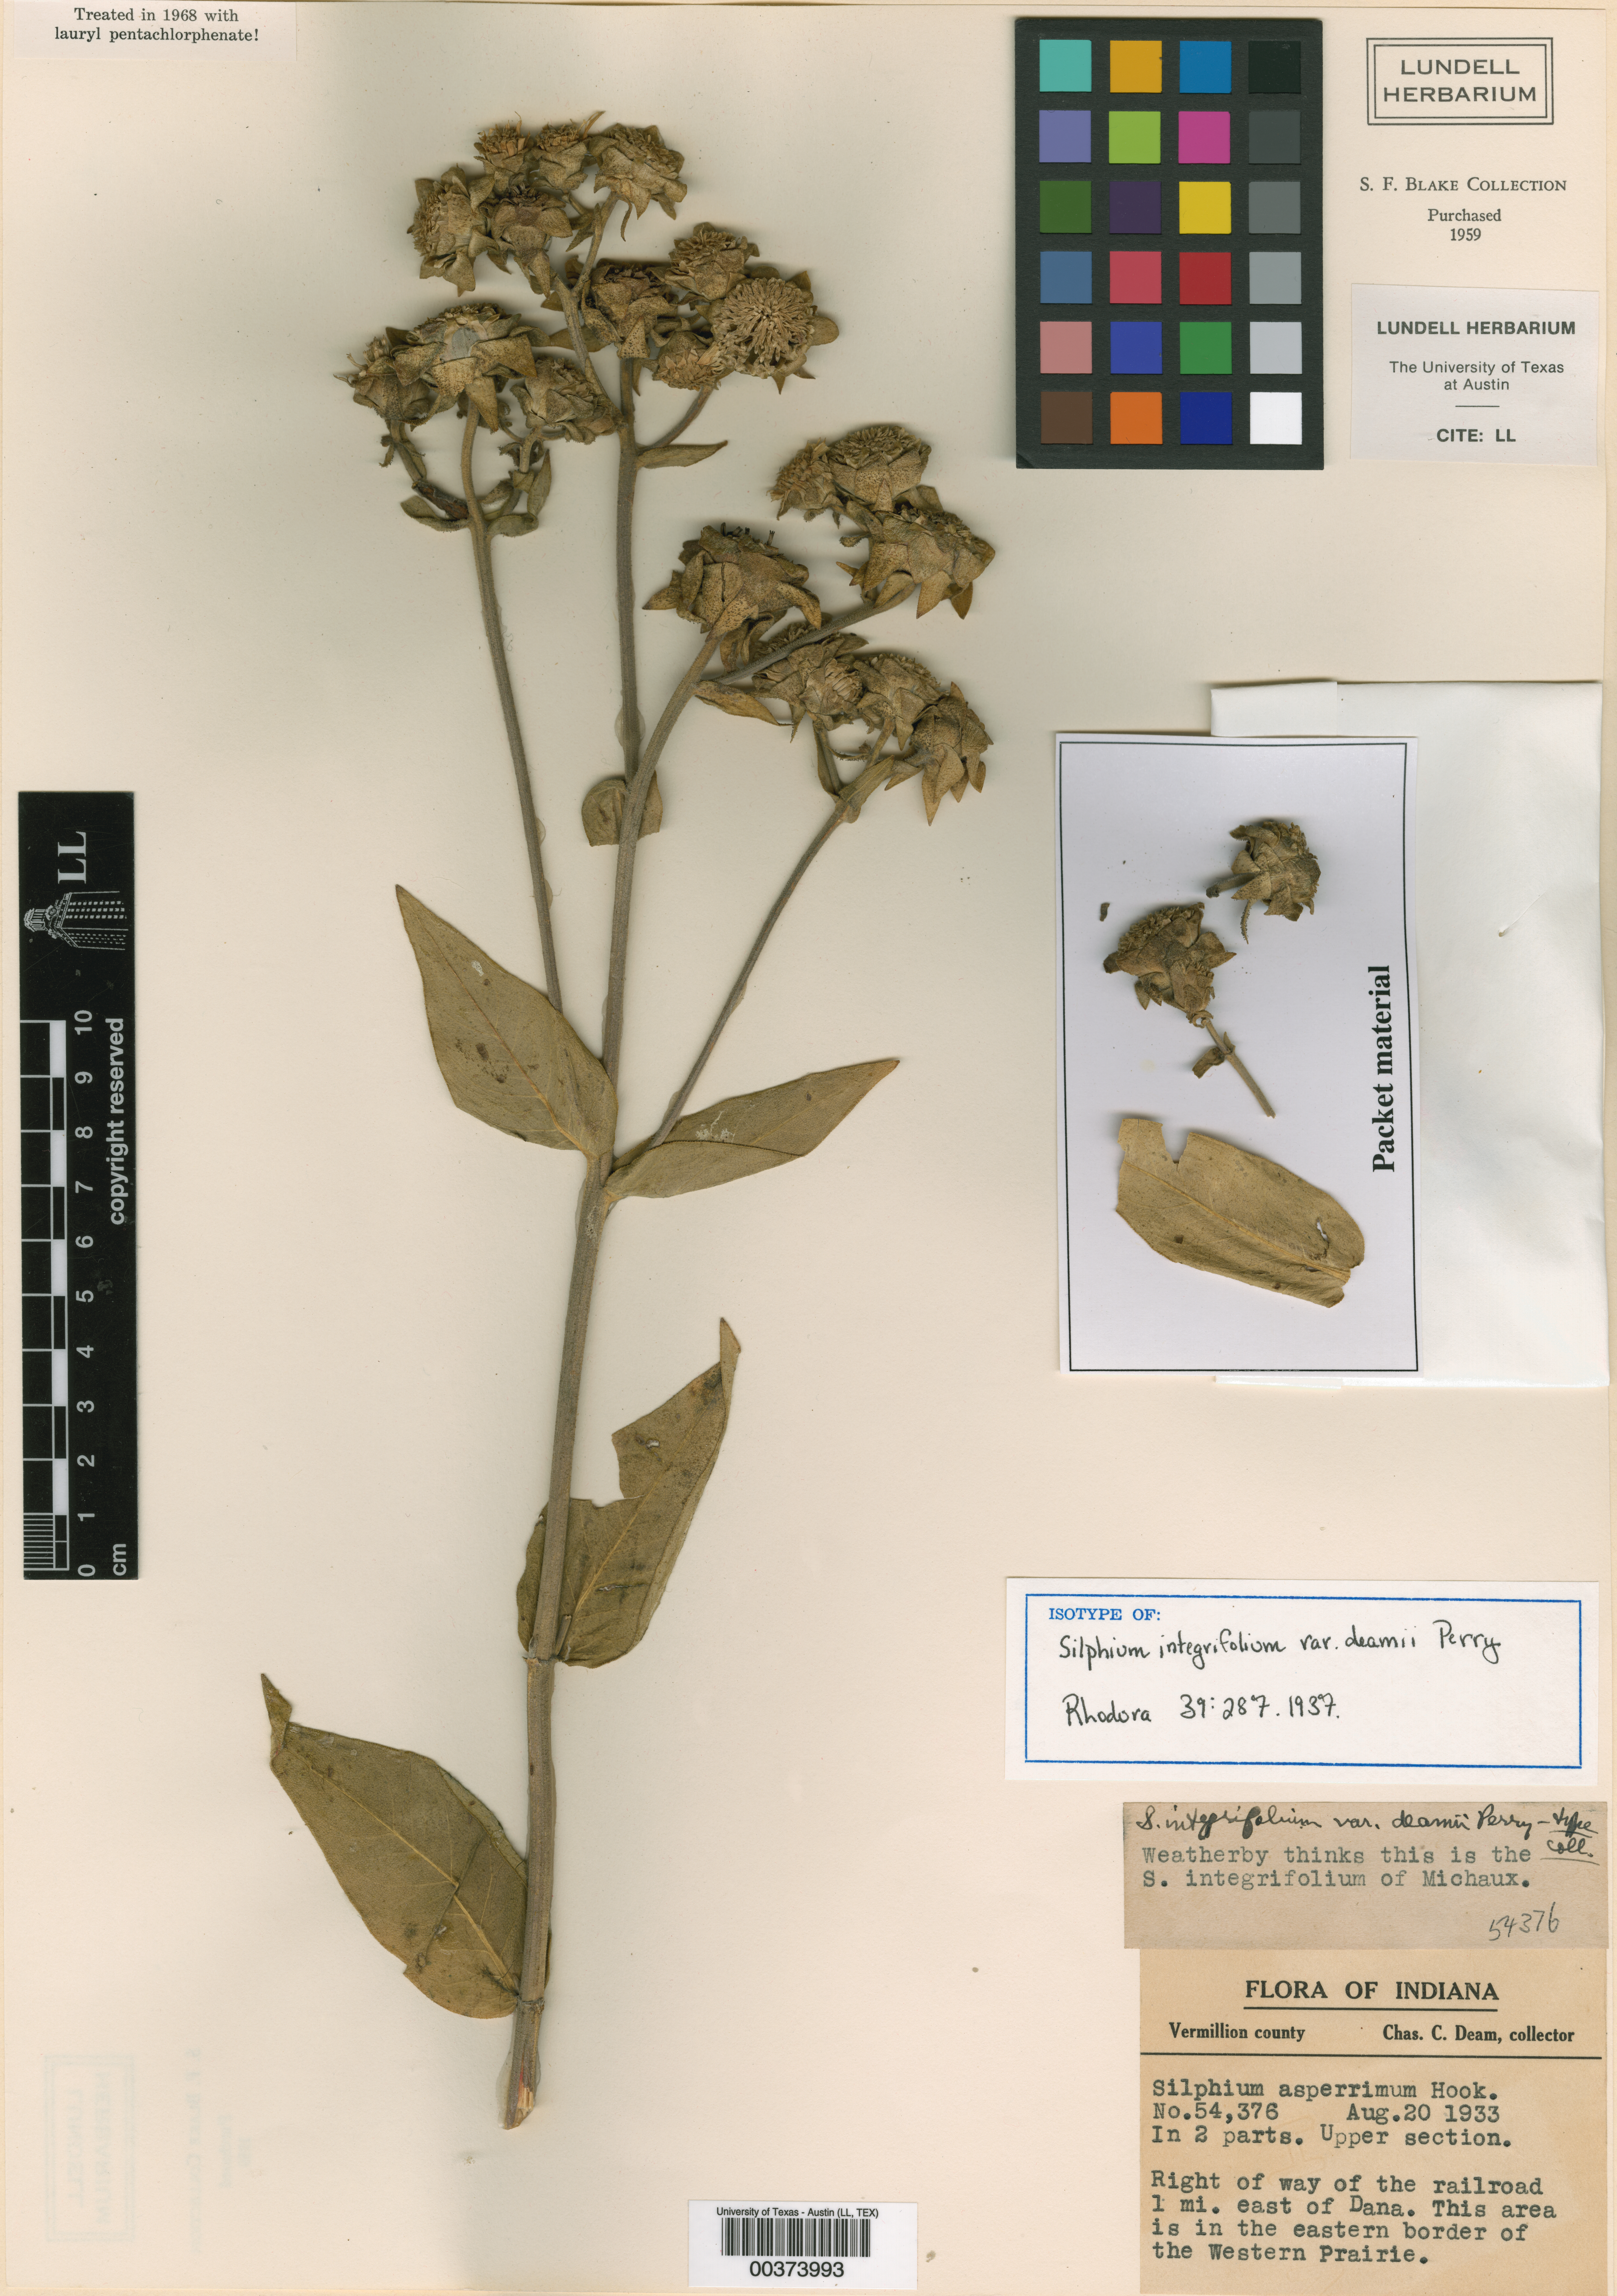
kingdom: Plantae
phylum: Tracheophyta
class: Magnoliopsida
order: Malpighiales
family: Hypericaceae
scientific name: Hypericaceae
